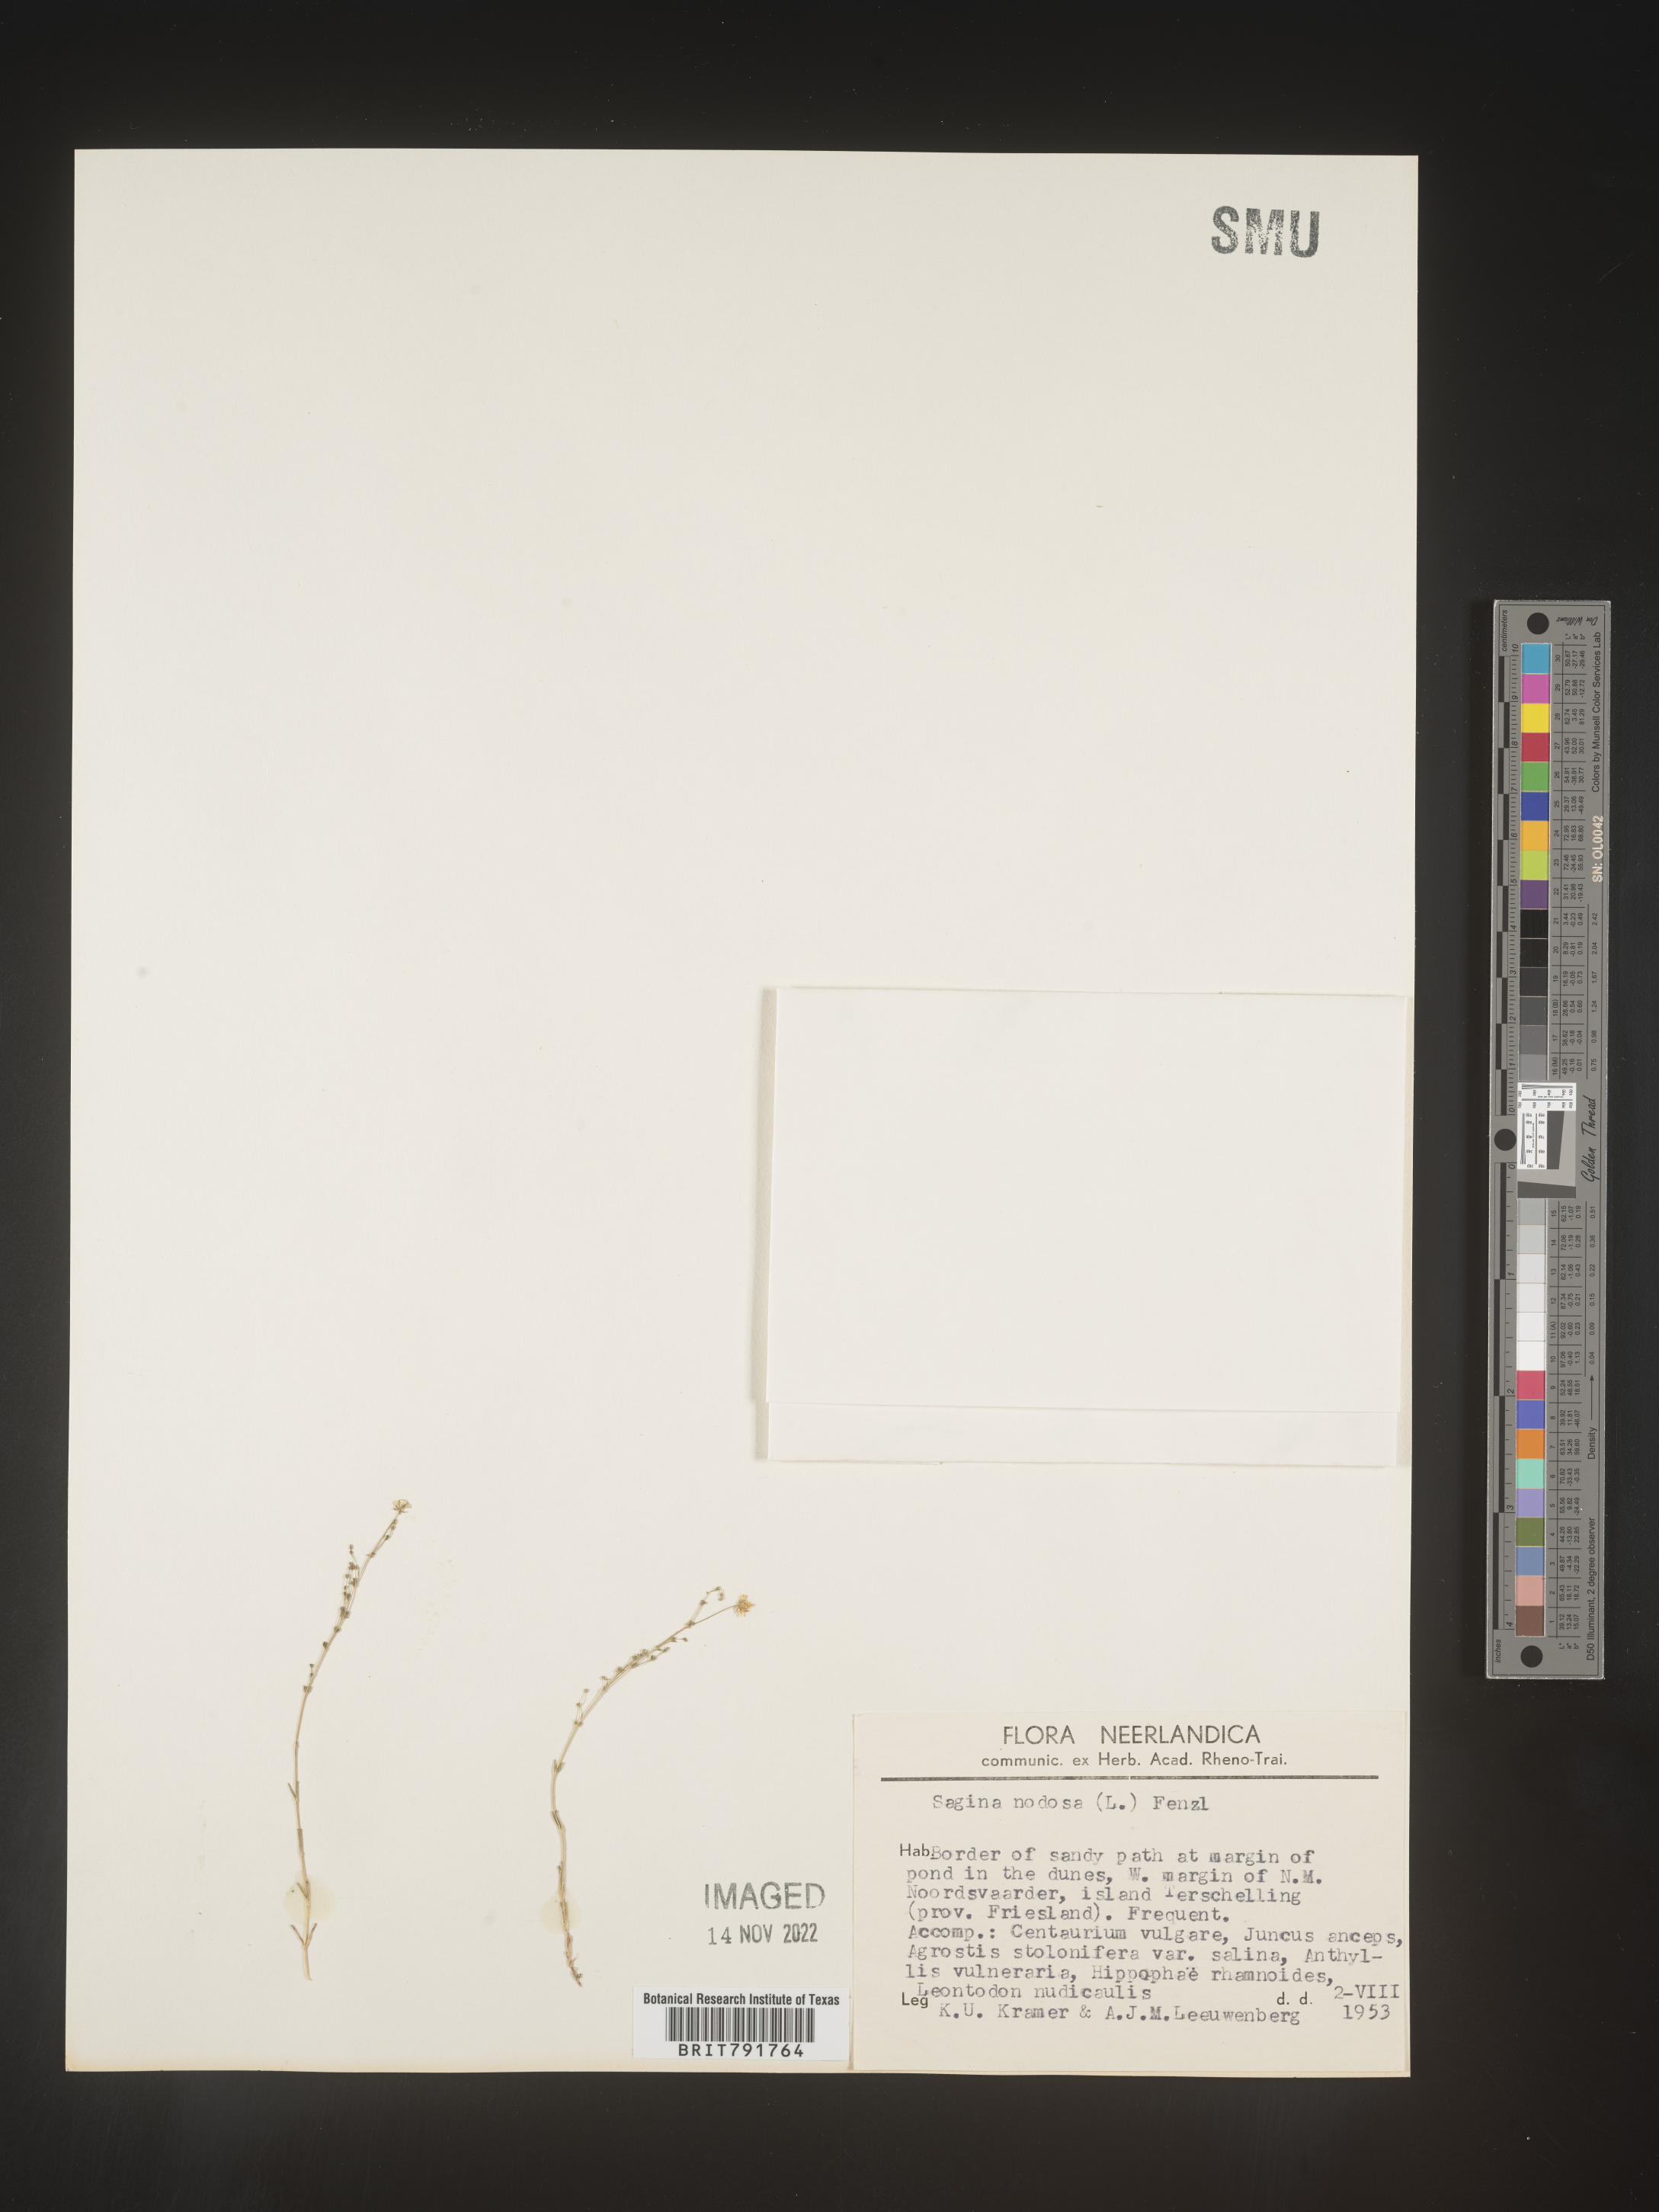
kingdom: Plantae
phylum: Tracheophyta
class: Magnoliopsida
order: Caryophyllales
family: Caryophyllaceae
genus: Sagina
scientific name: Sagina
